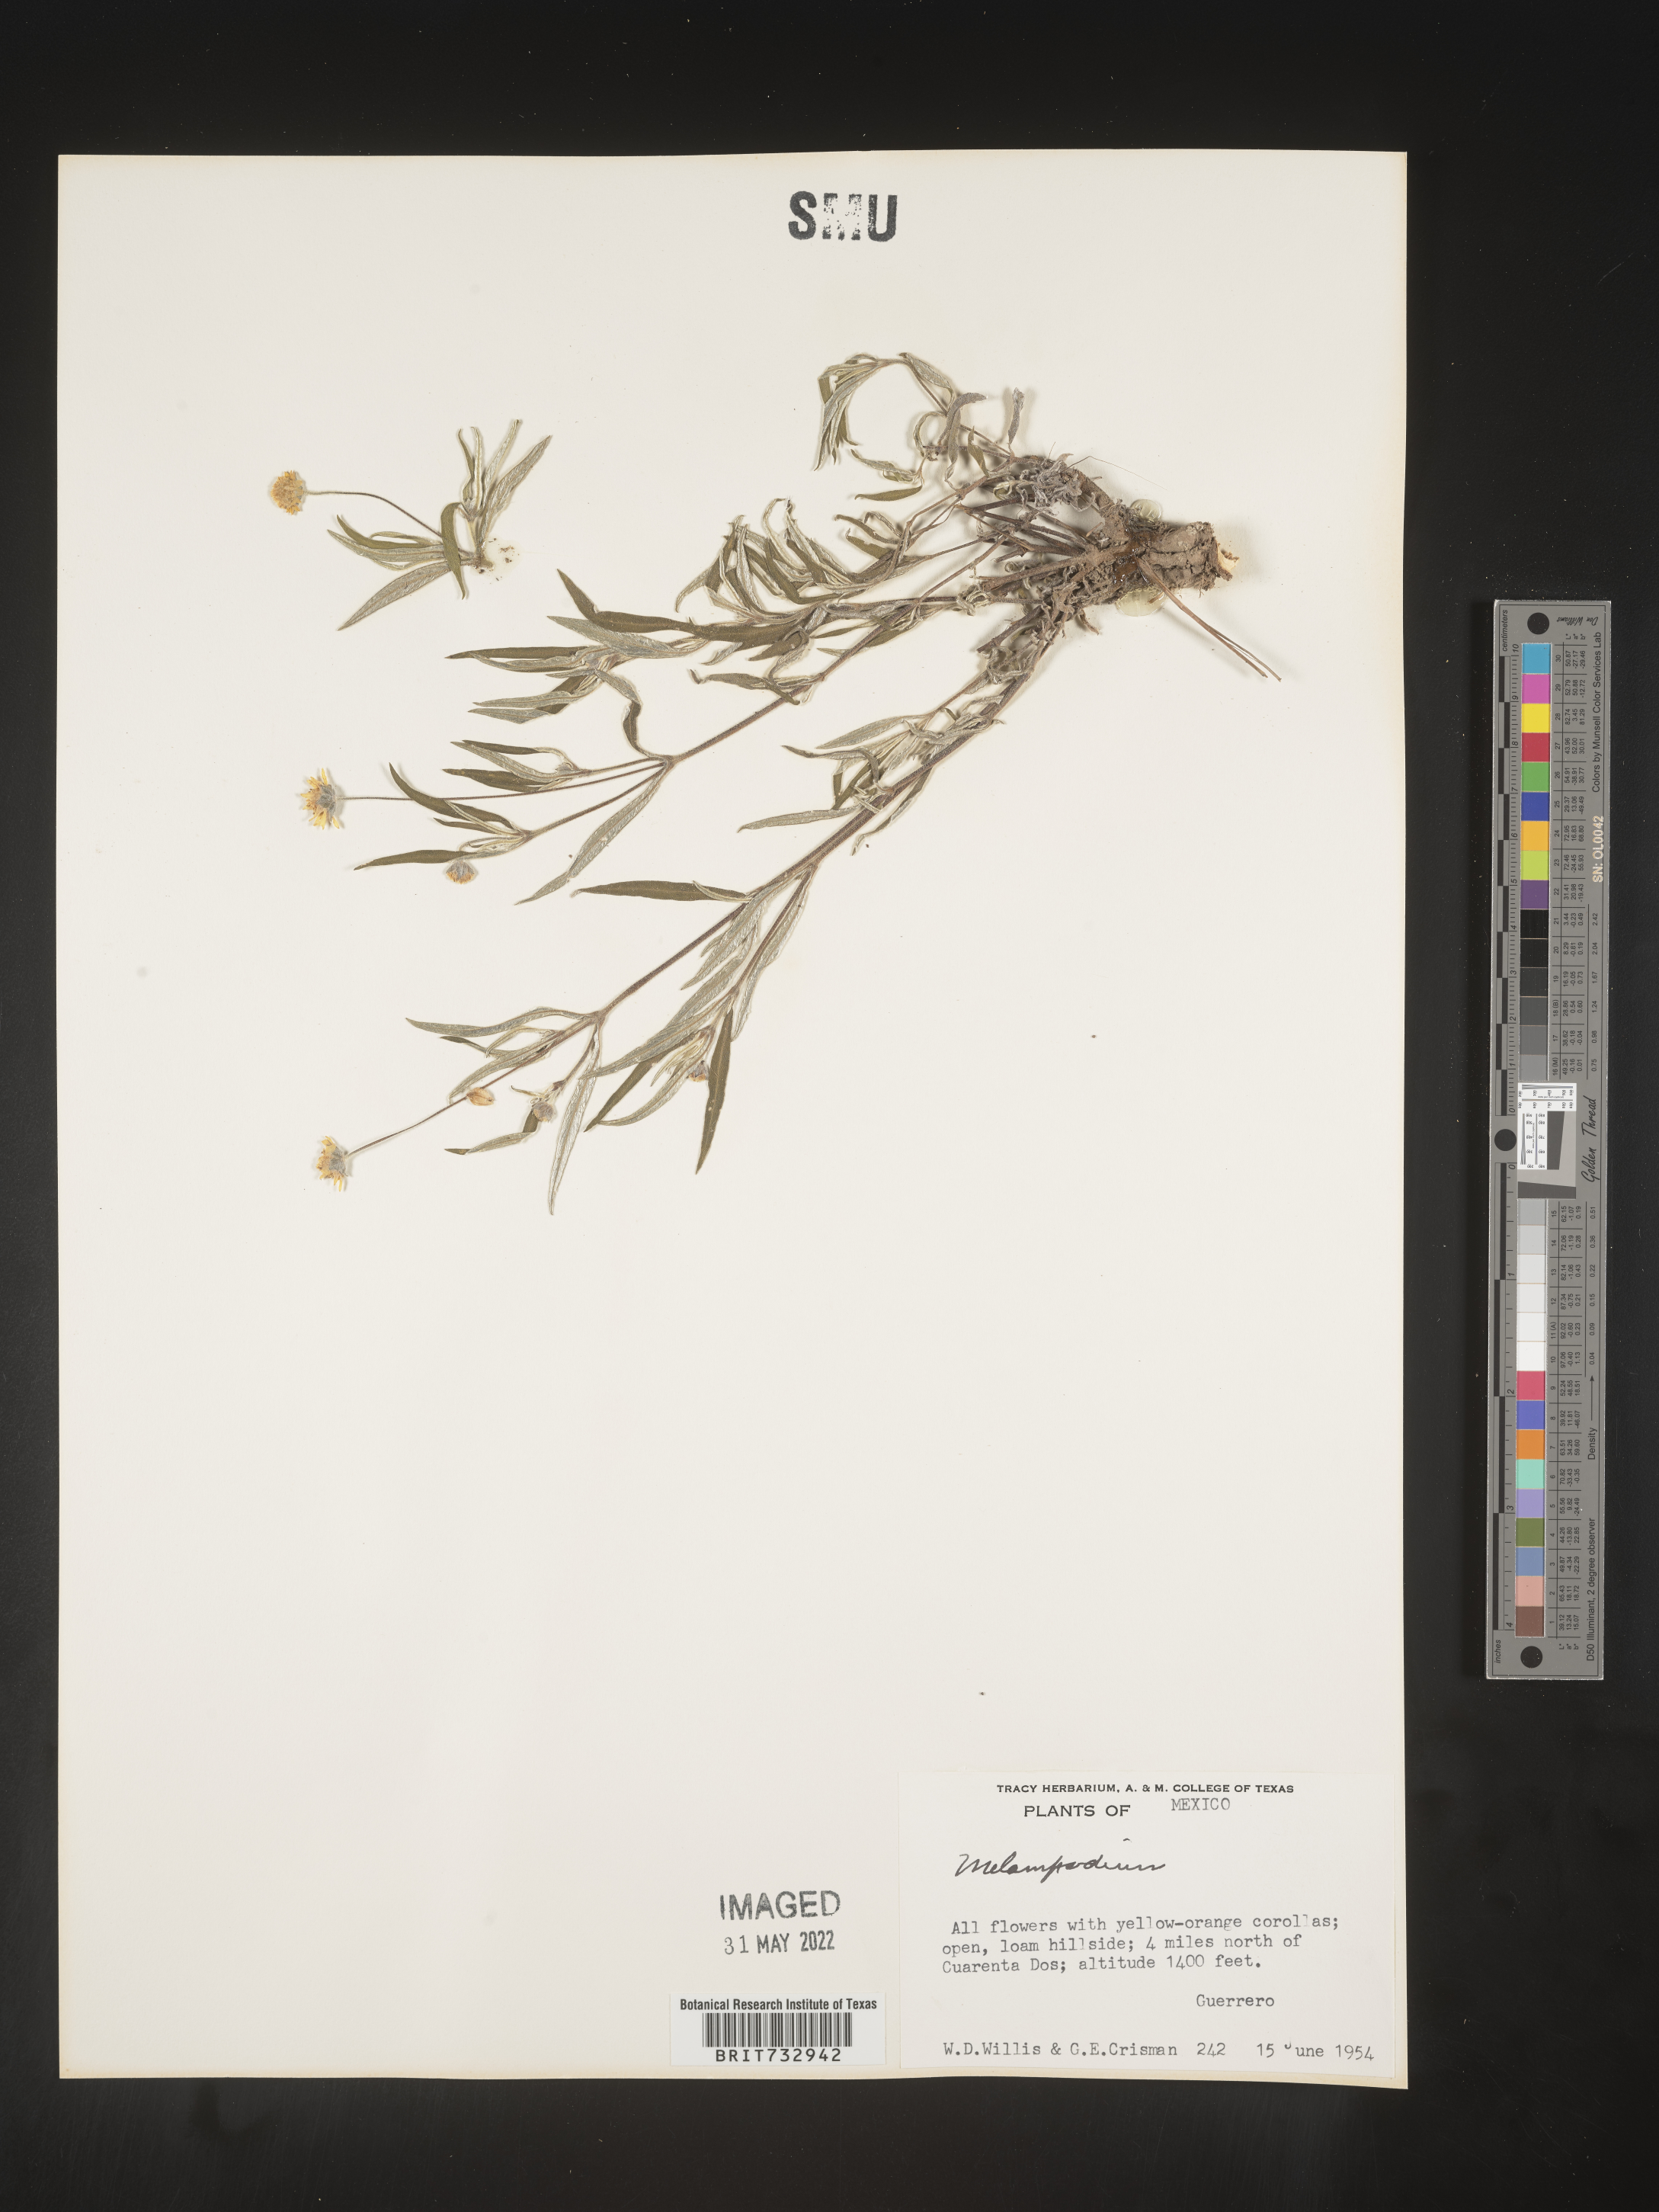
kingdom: Plantae
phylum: Tracheophyta
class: Magnoliopsida
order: Asterales
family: Asteraceae
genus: Melampodium
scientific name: Melampodium
